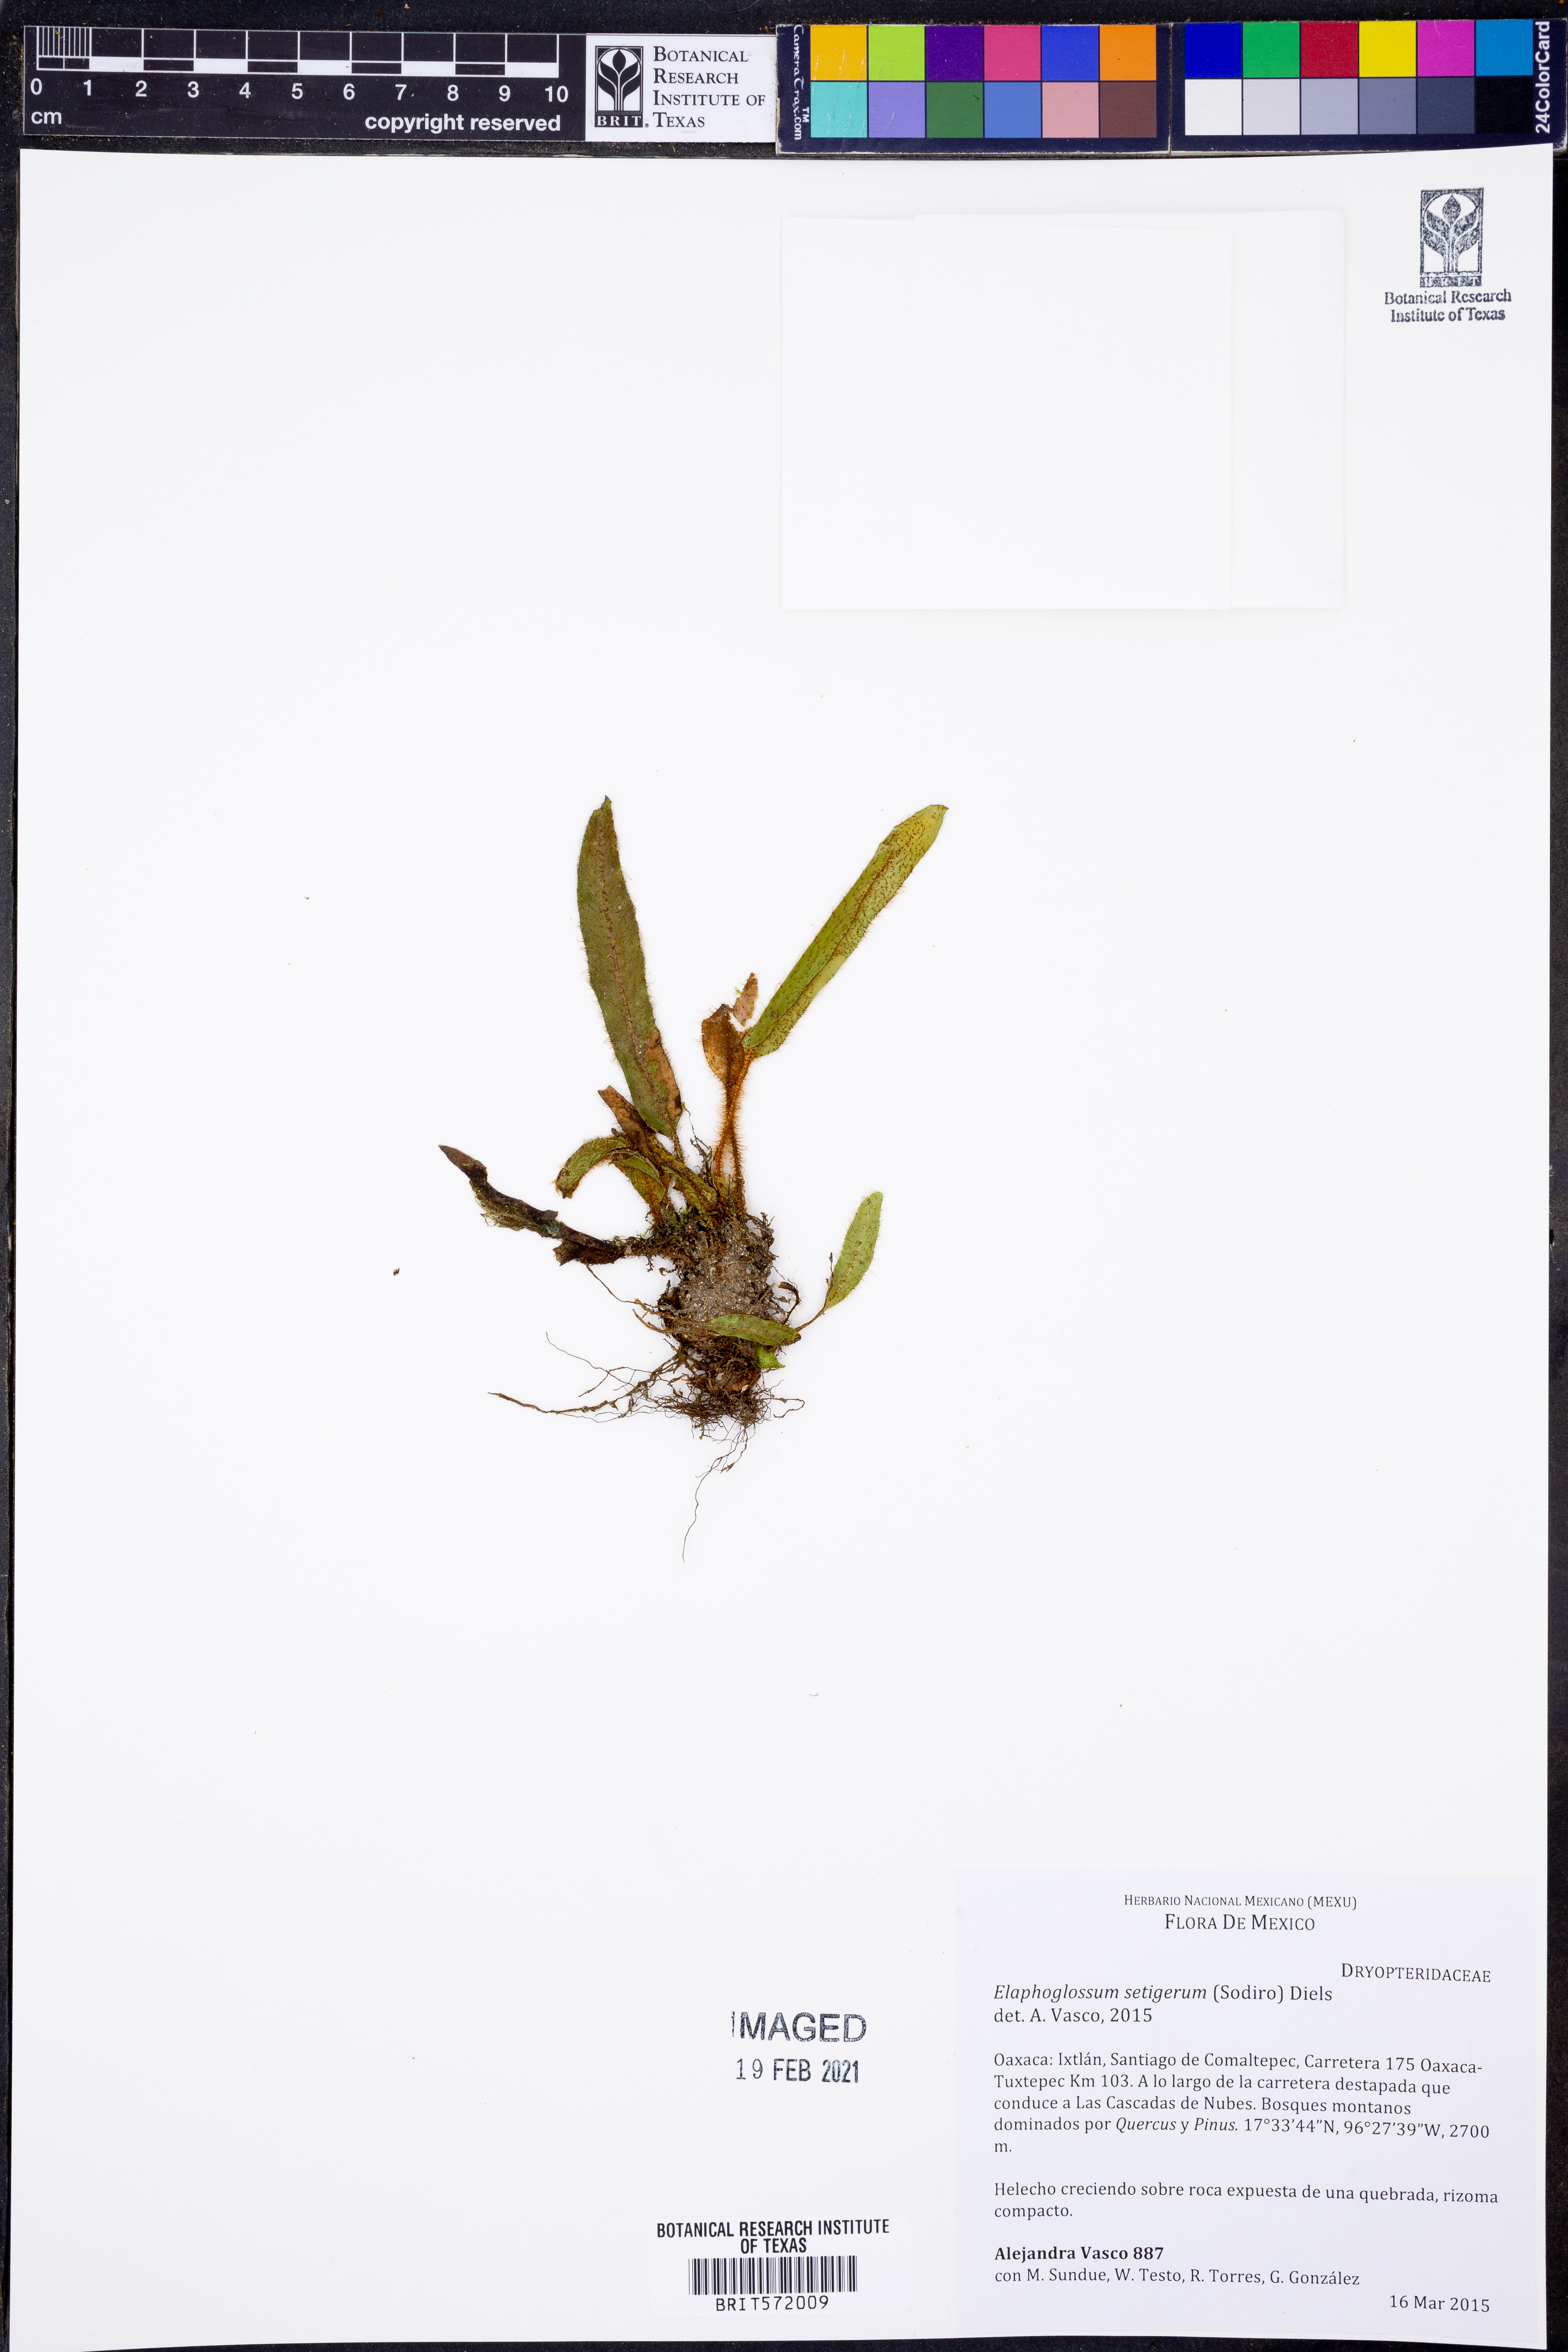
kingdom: Plantae
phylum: Tracheophyta
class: Polypodiopsida
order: Polypodiales
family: Dryopteridaceae
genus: Elaphoglossum
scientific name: Elaphoglossum setigerum
